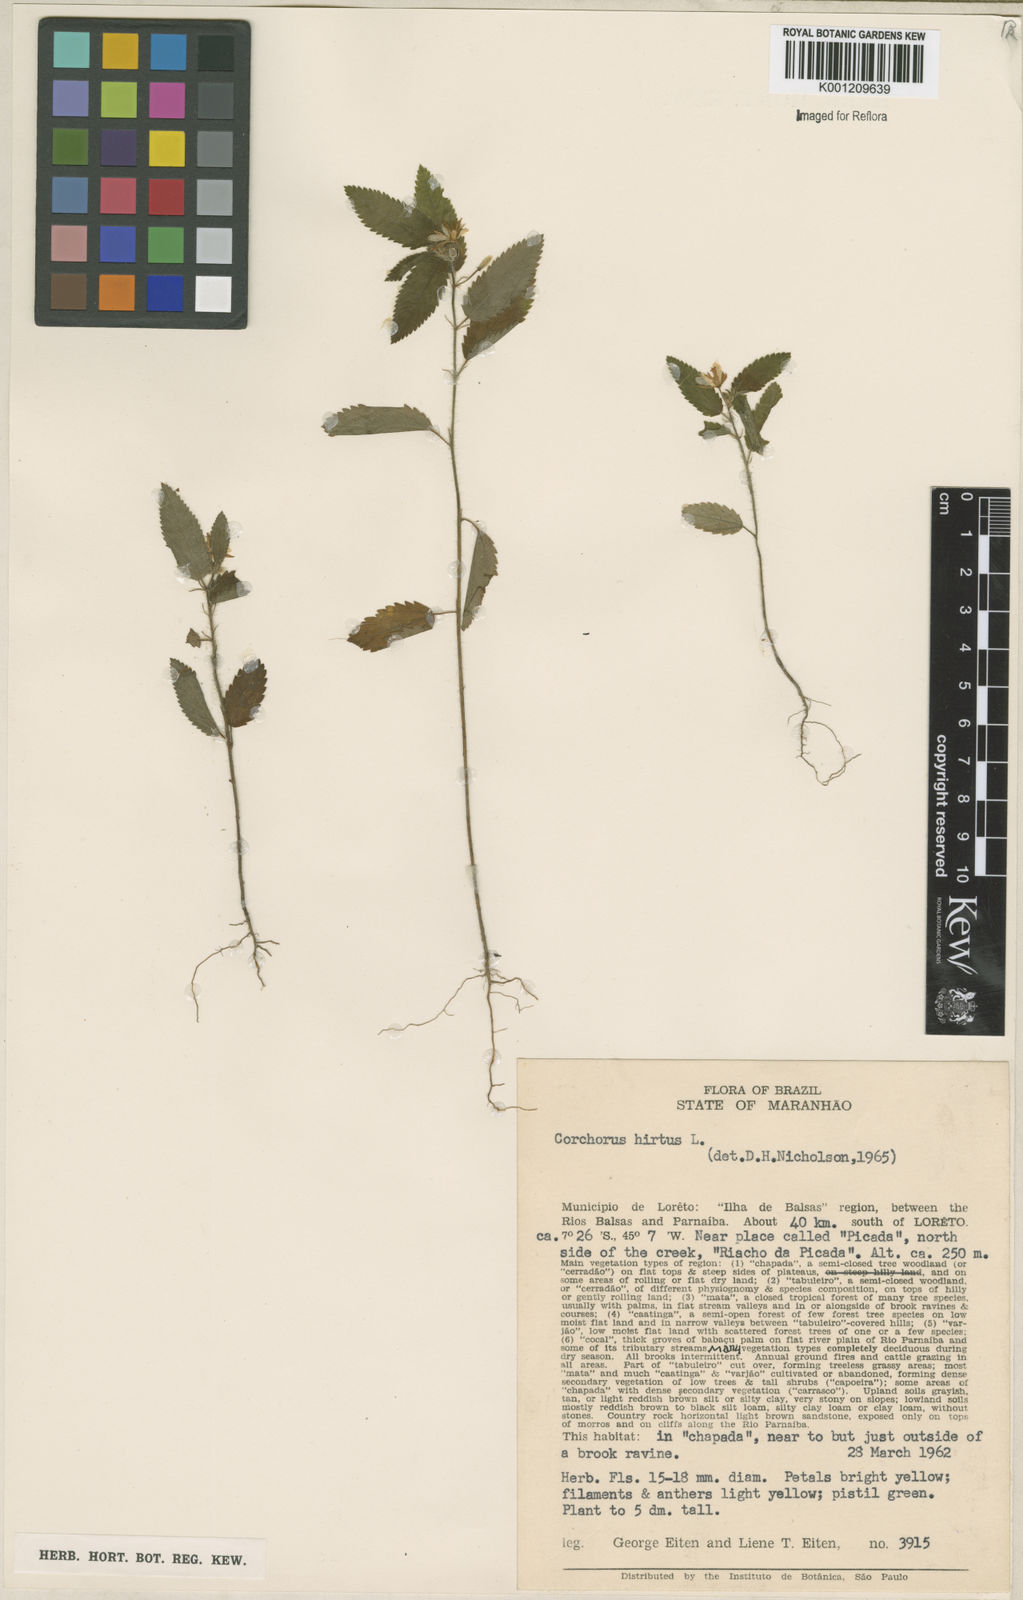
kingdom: Plantae
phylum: Tracheophyta
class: Magnoliopsida
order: Malvales
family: Malvaceae
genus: Corchorus
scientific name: Corchorus hirtus
